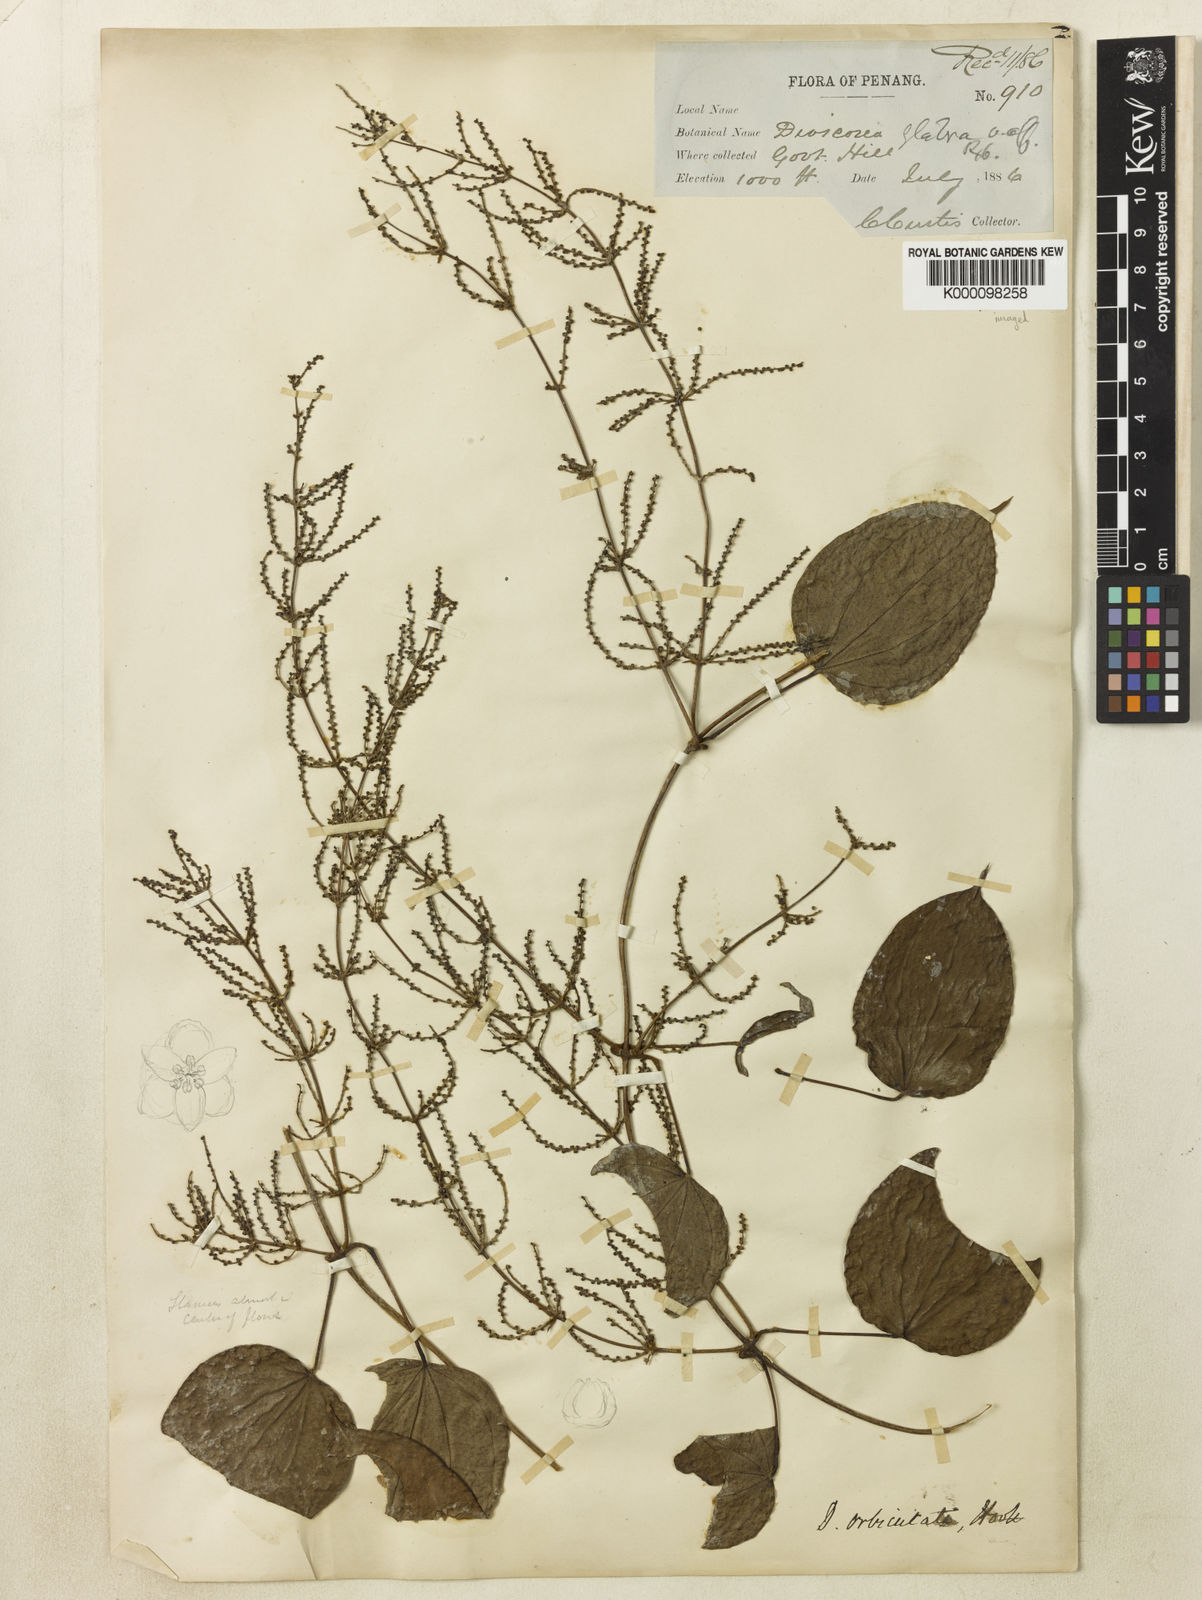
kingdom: Plantae
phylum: Tracheophyta
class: Liliopsida
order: Dioscoreales
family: Dioscoreaceae
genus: Dioscorea
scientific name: Dioscorea orbiculata
